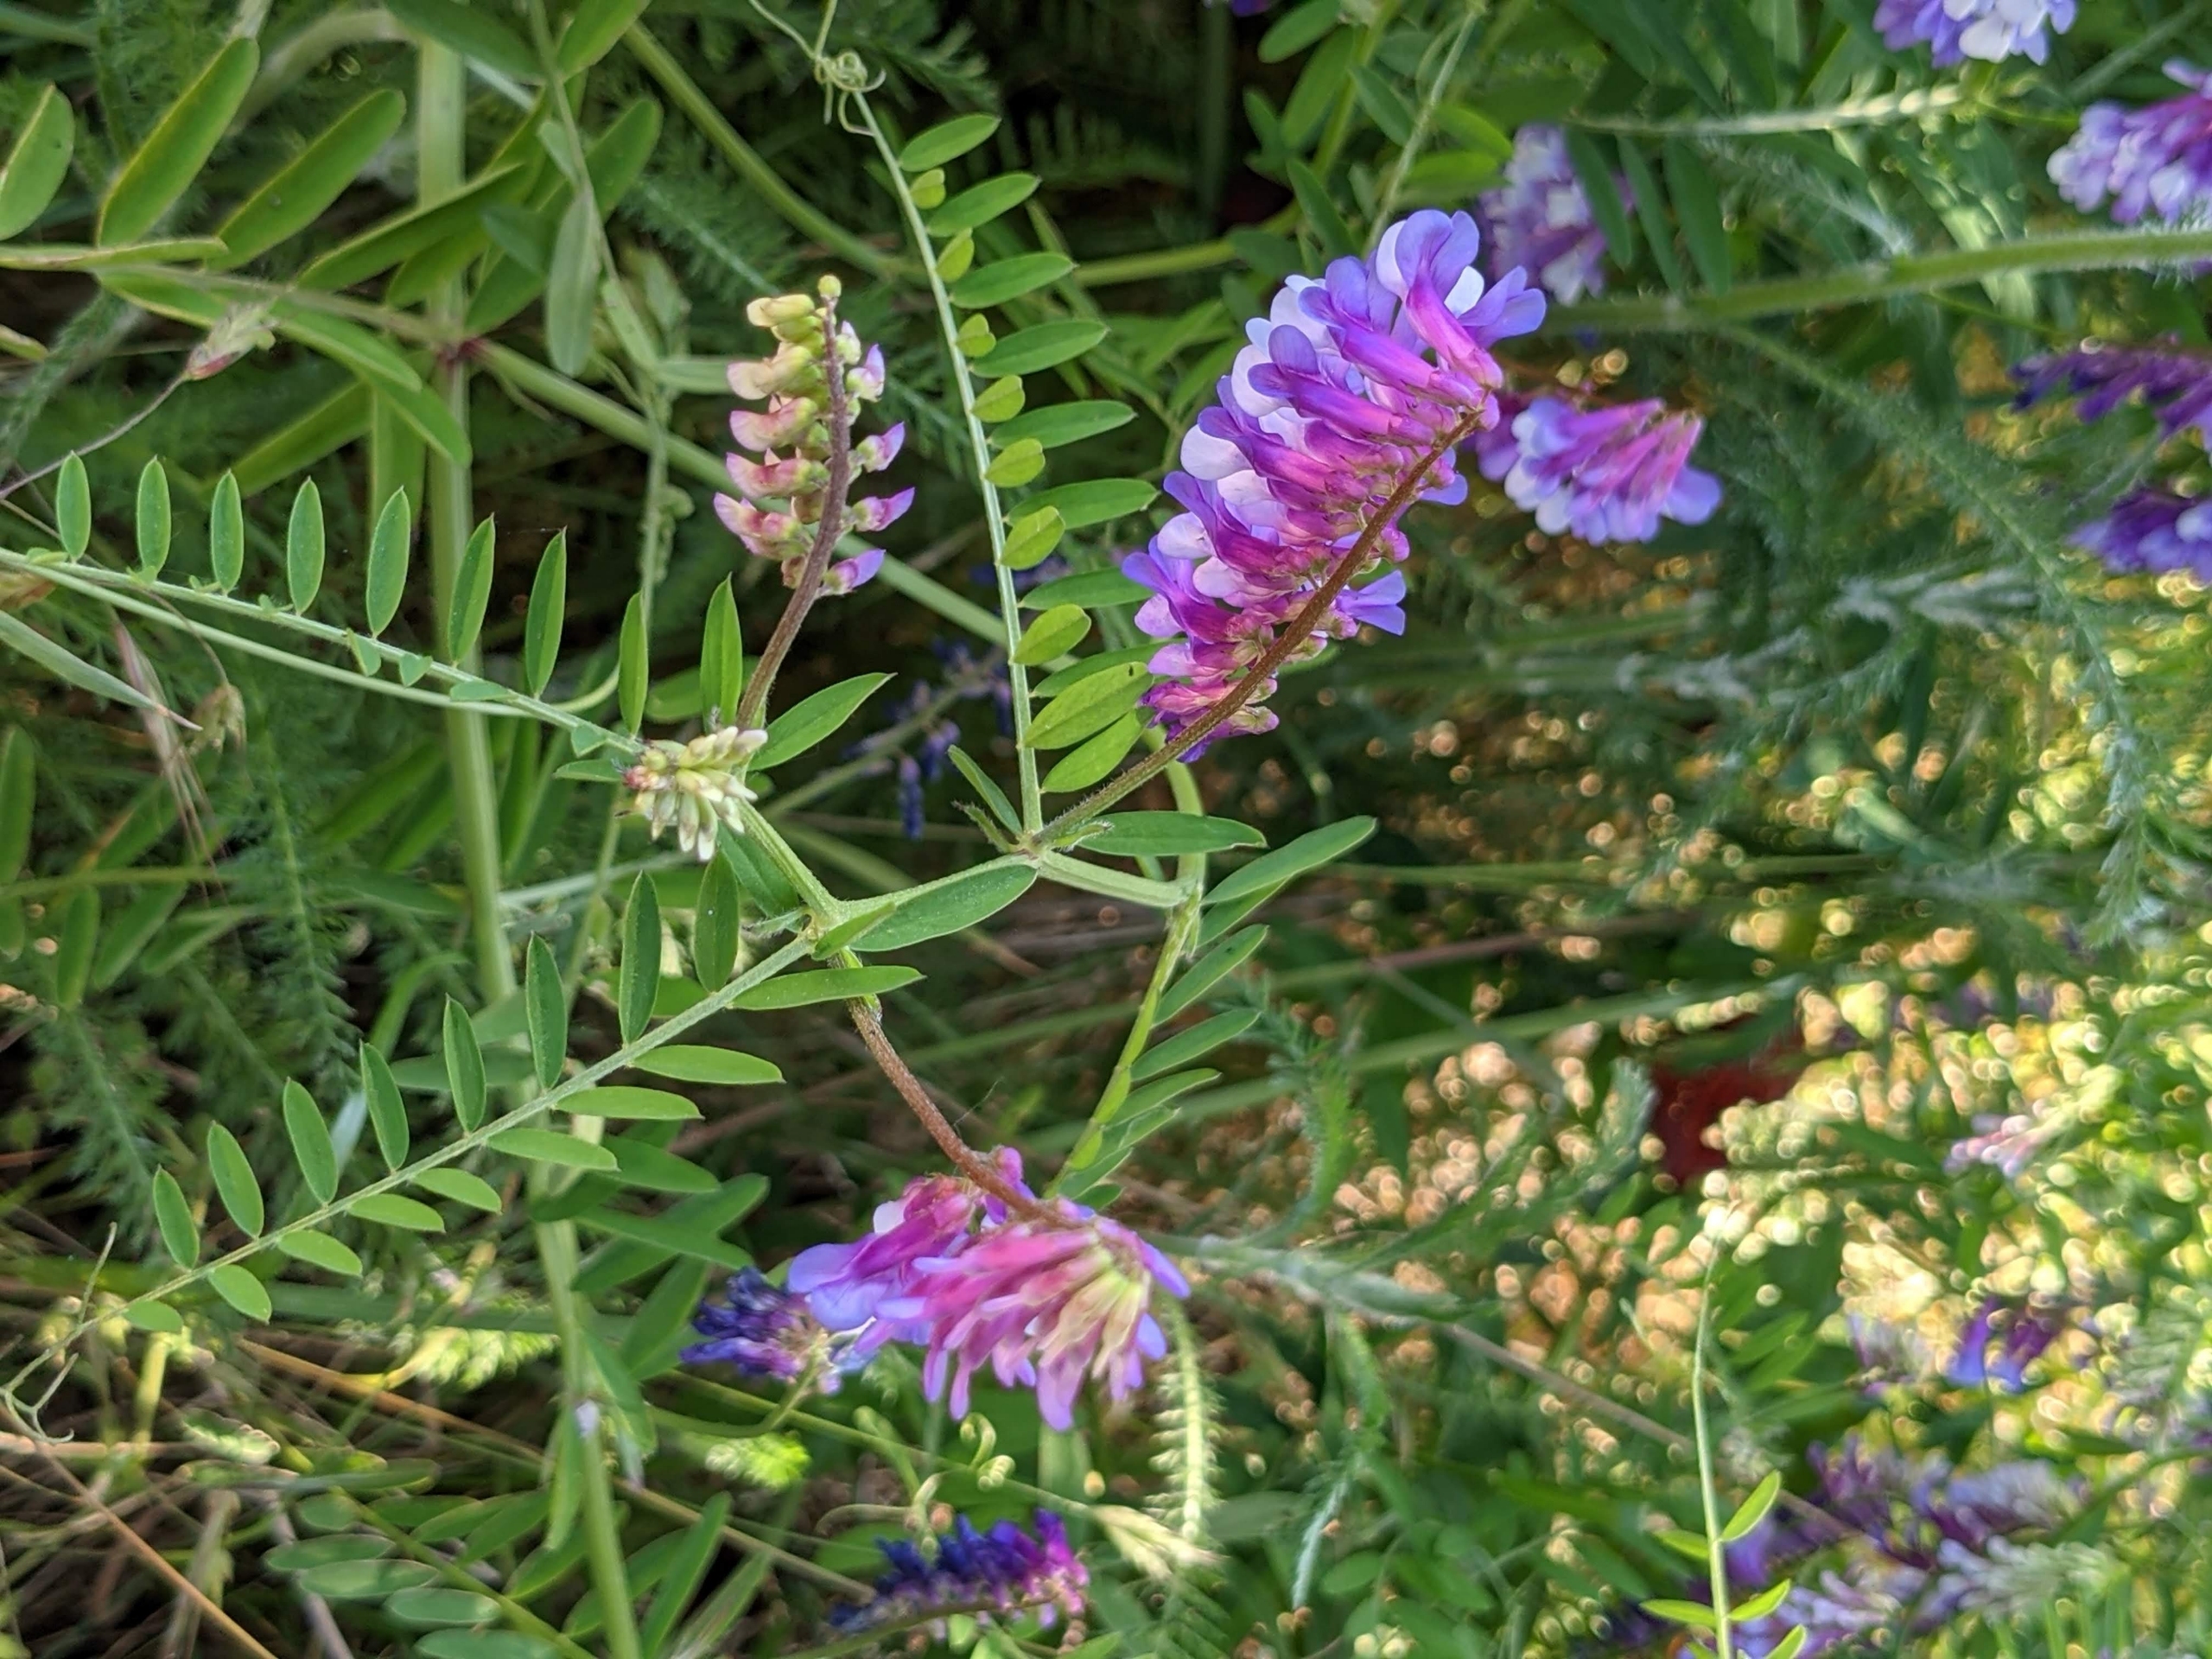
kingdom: Plantae
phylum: Tracheophyta
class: Magnoliopsida
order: Fabales
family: Fabaceae
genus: Vicia
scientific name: Vicia villosa
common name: Sand-vikke (underart)
